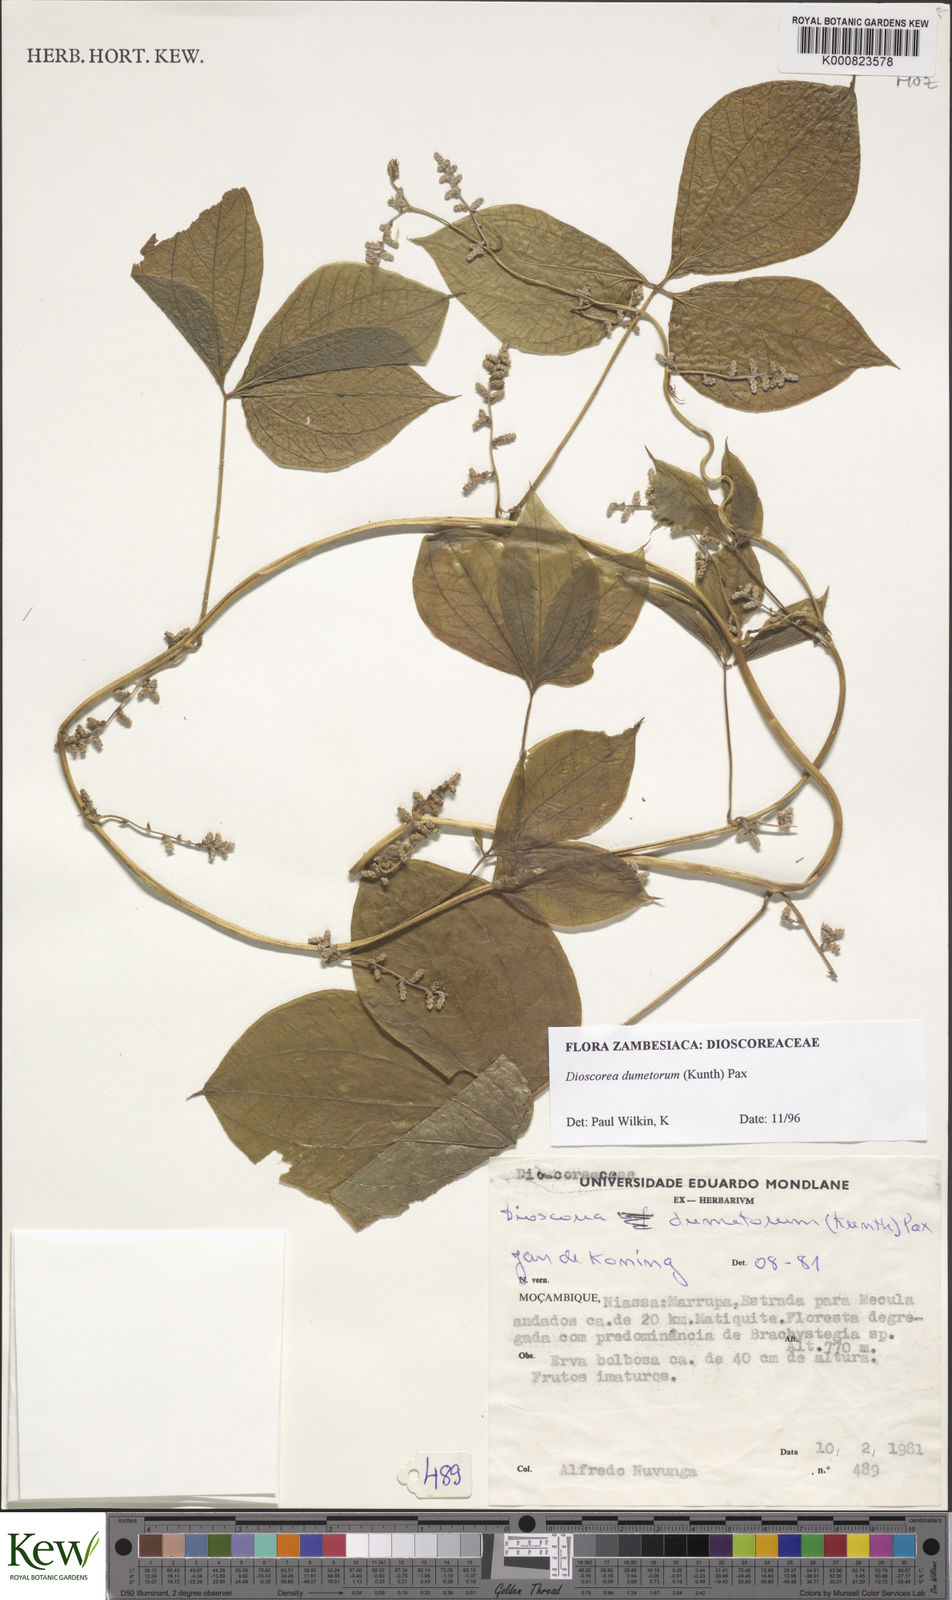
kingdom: Plantae
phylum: Tracheophyta
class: Liliopsida
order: Dioscoreales
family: Dioscoreaceae
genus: Dioscorea
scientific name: Dioscorea dumetorum
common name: African bitter yam
